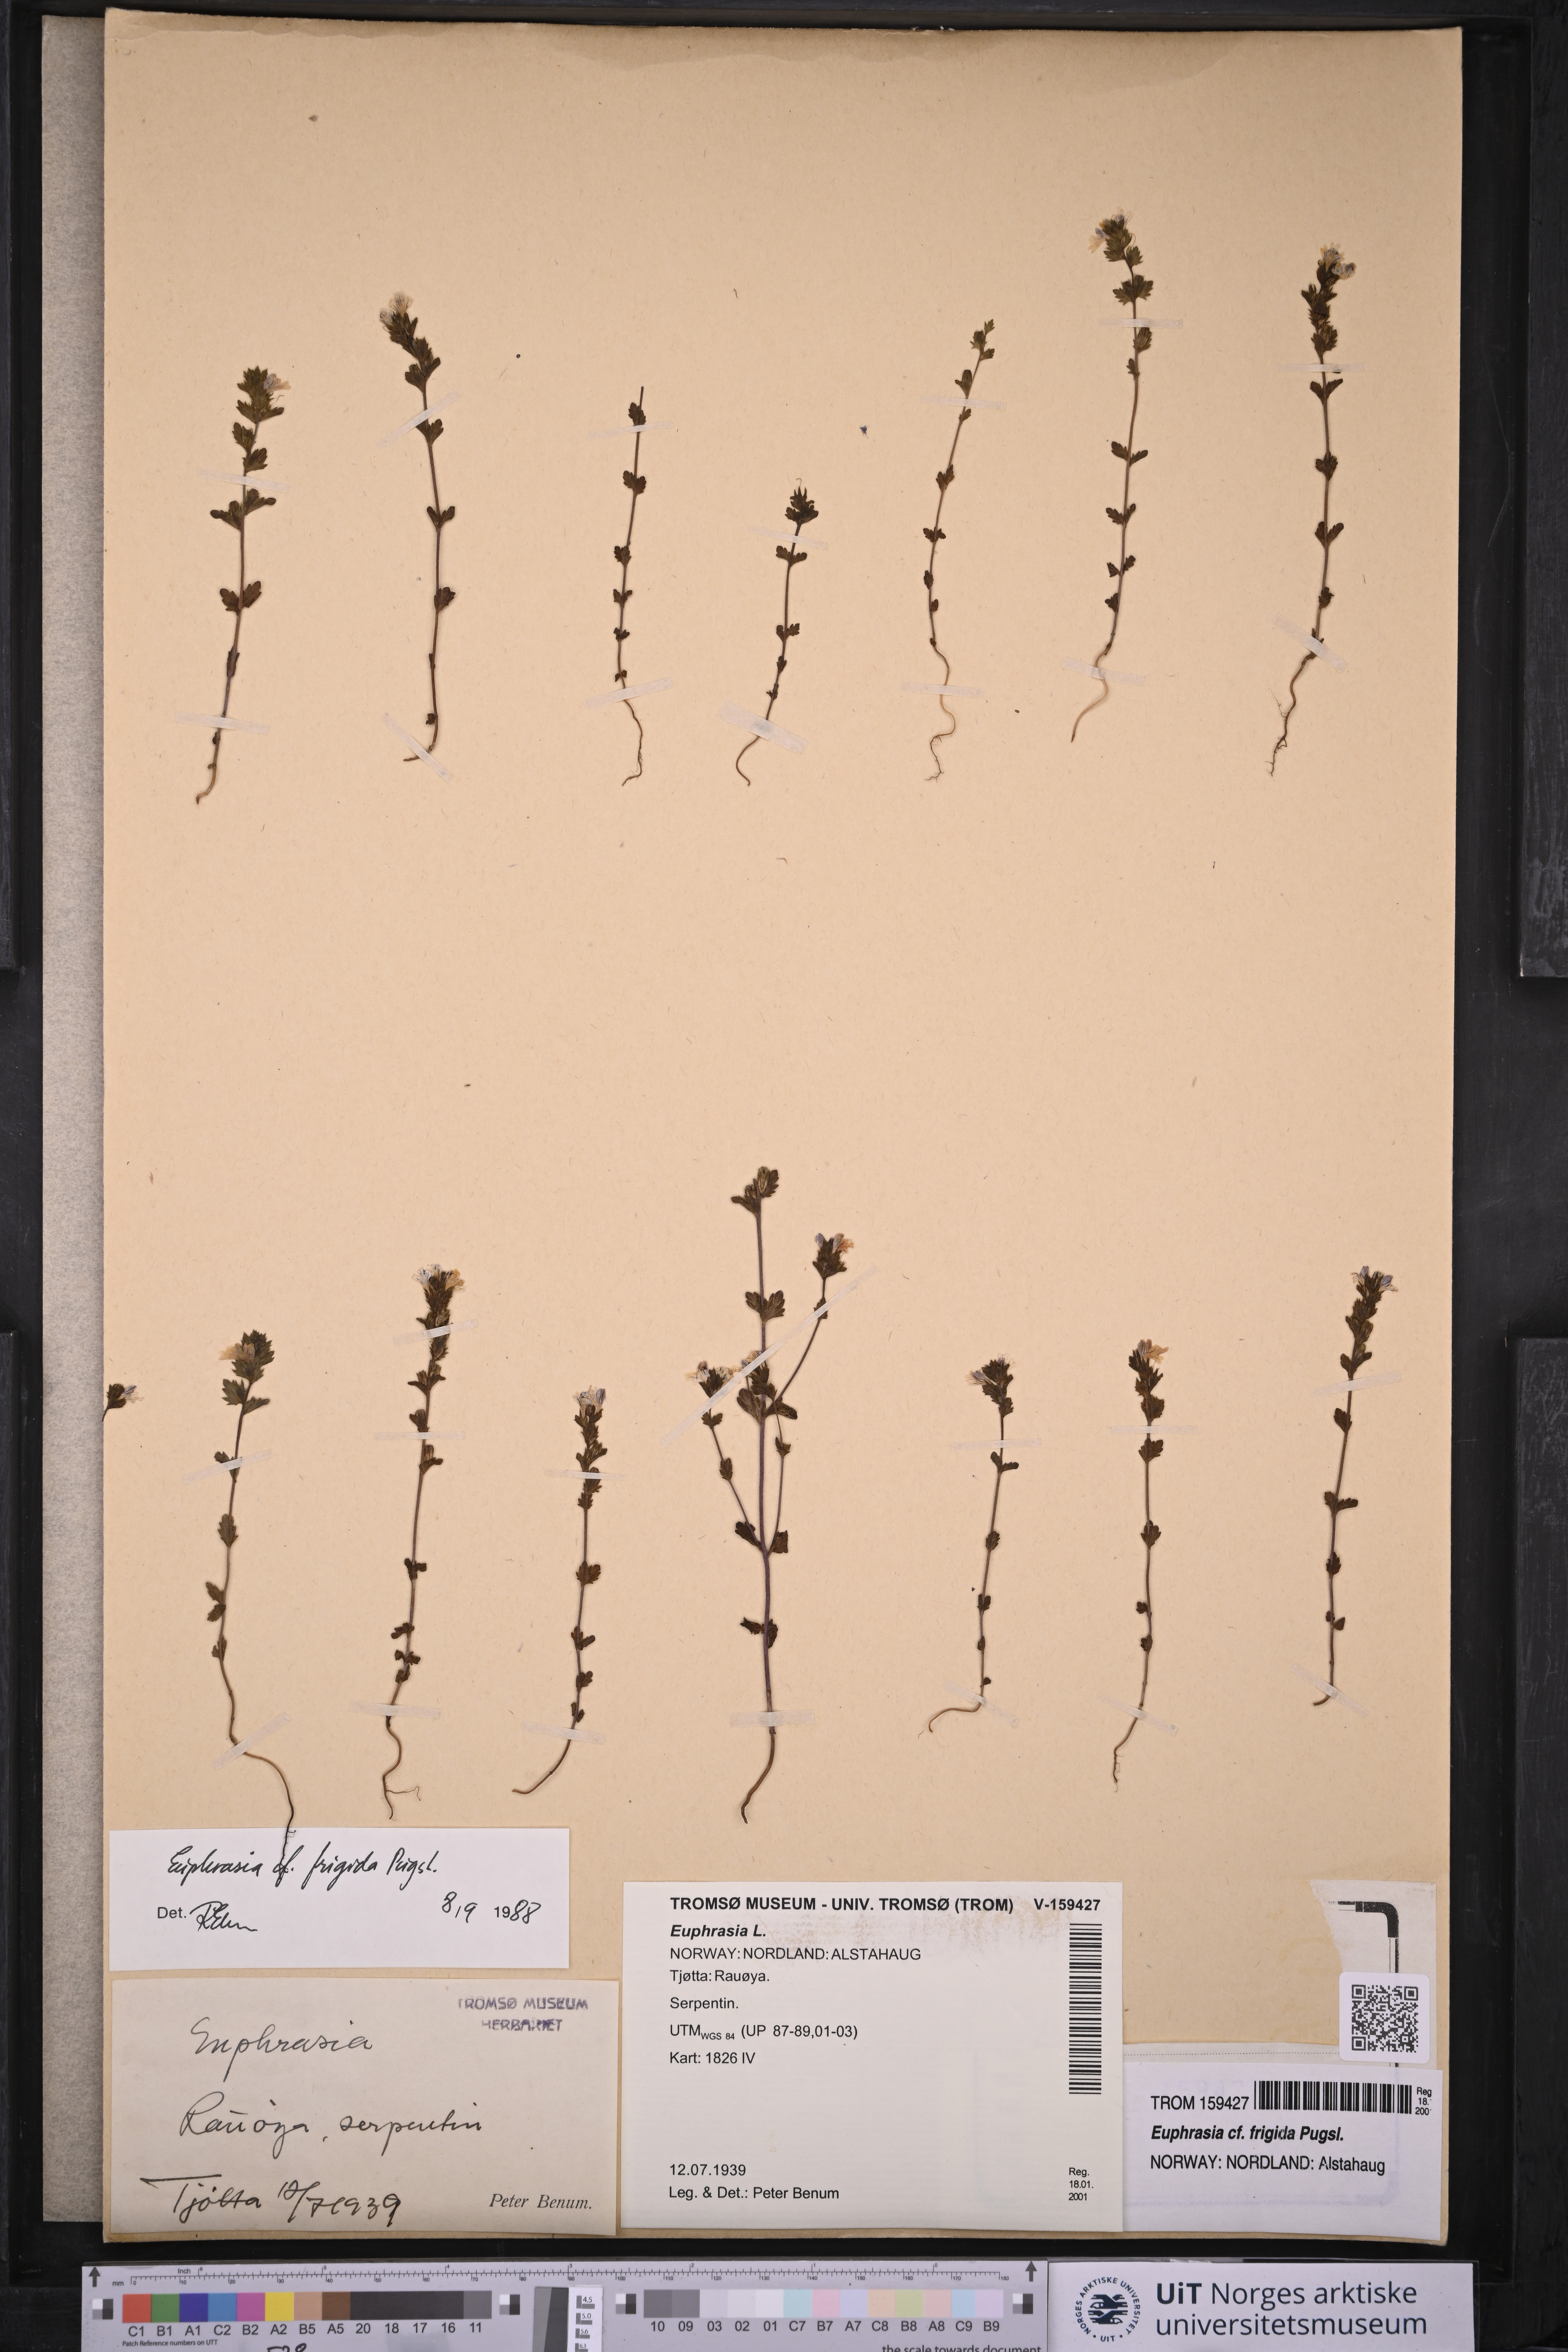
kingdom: Plantae
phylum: Tracheophyta
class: Magnoliopsida
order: Lamiales
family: Orobanchaceae
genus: Euphrasia
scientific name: Euphrasia frigida
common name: An eyebright
